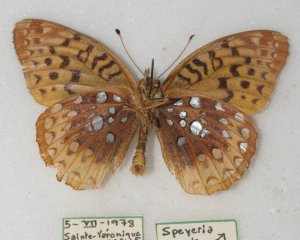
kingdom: Animalia
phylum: Arthropoda
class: Insecta
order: Lepidoptera
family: Nymphalidae
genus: Speyeria
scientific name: Speyeria cybele
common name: Great Spangled Fritillary
